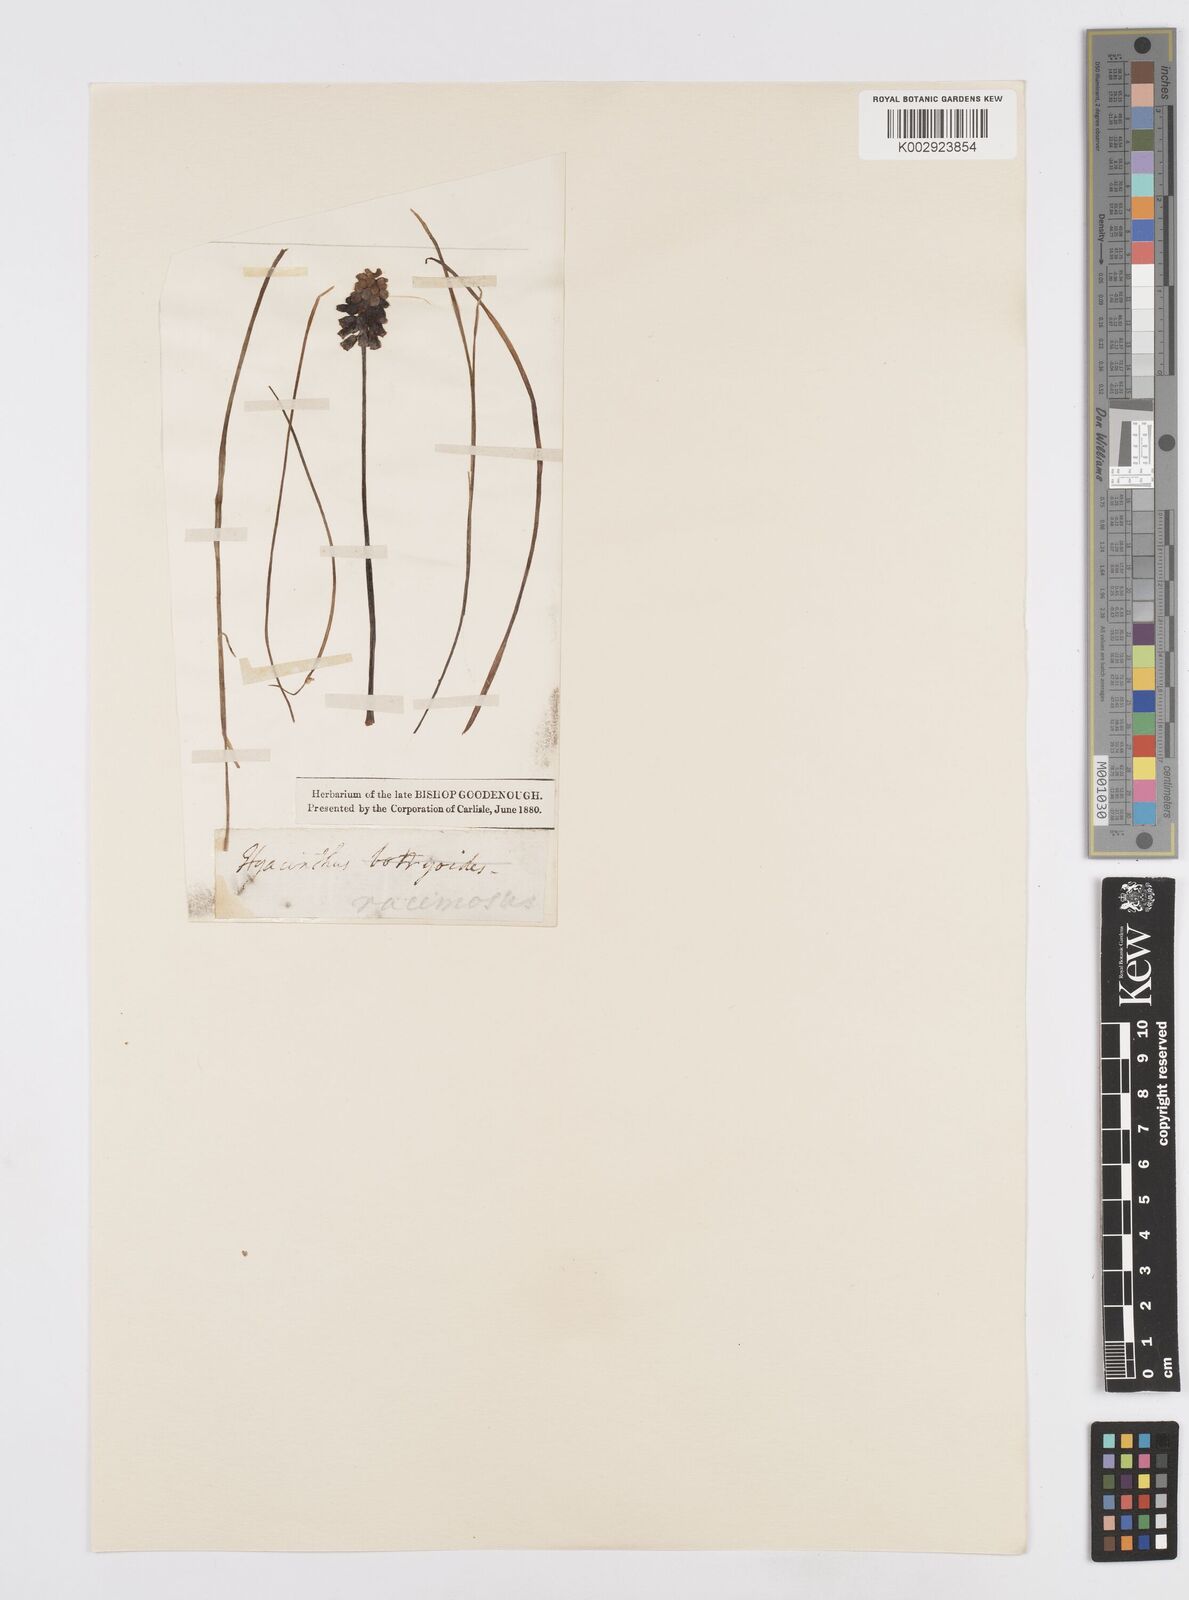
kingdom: Plantae
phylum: Tracheophyta
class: Liliopsida
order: Asparagales
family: Asparagaceae
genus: Muscari
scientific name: Muscari neglectum
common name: Grape-hyacinth
